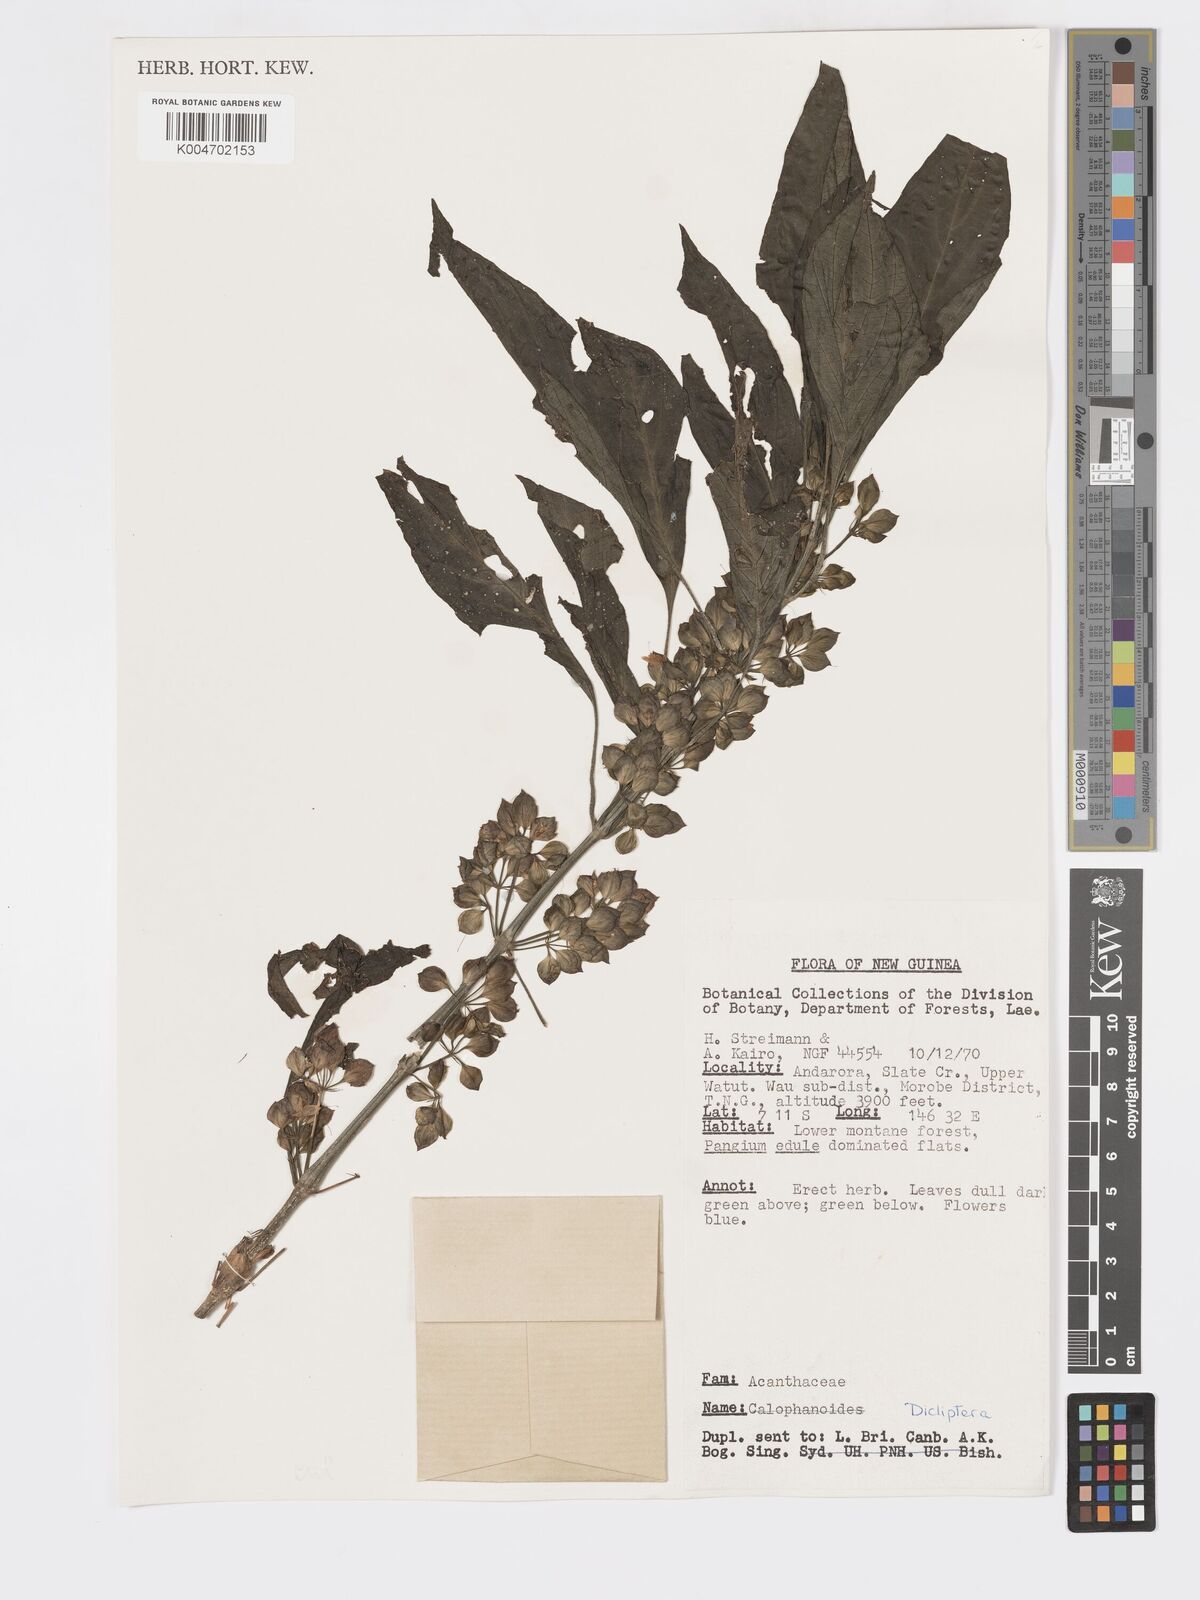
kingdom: Plantae
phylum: Tracheophyta
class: Magnoliopsida
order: Lamiales
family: Acanthaceae
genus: Dicliptera
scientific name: Dicliptera
